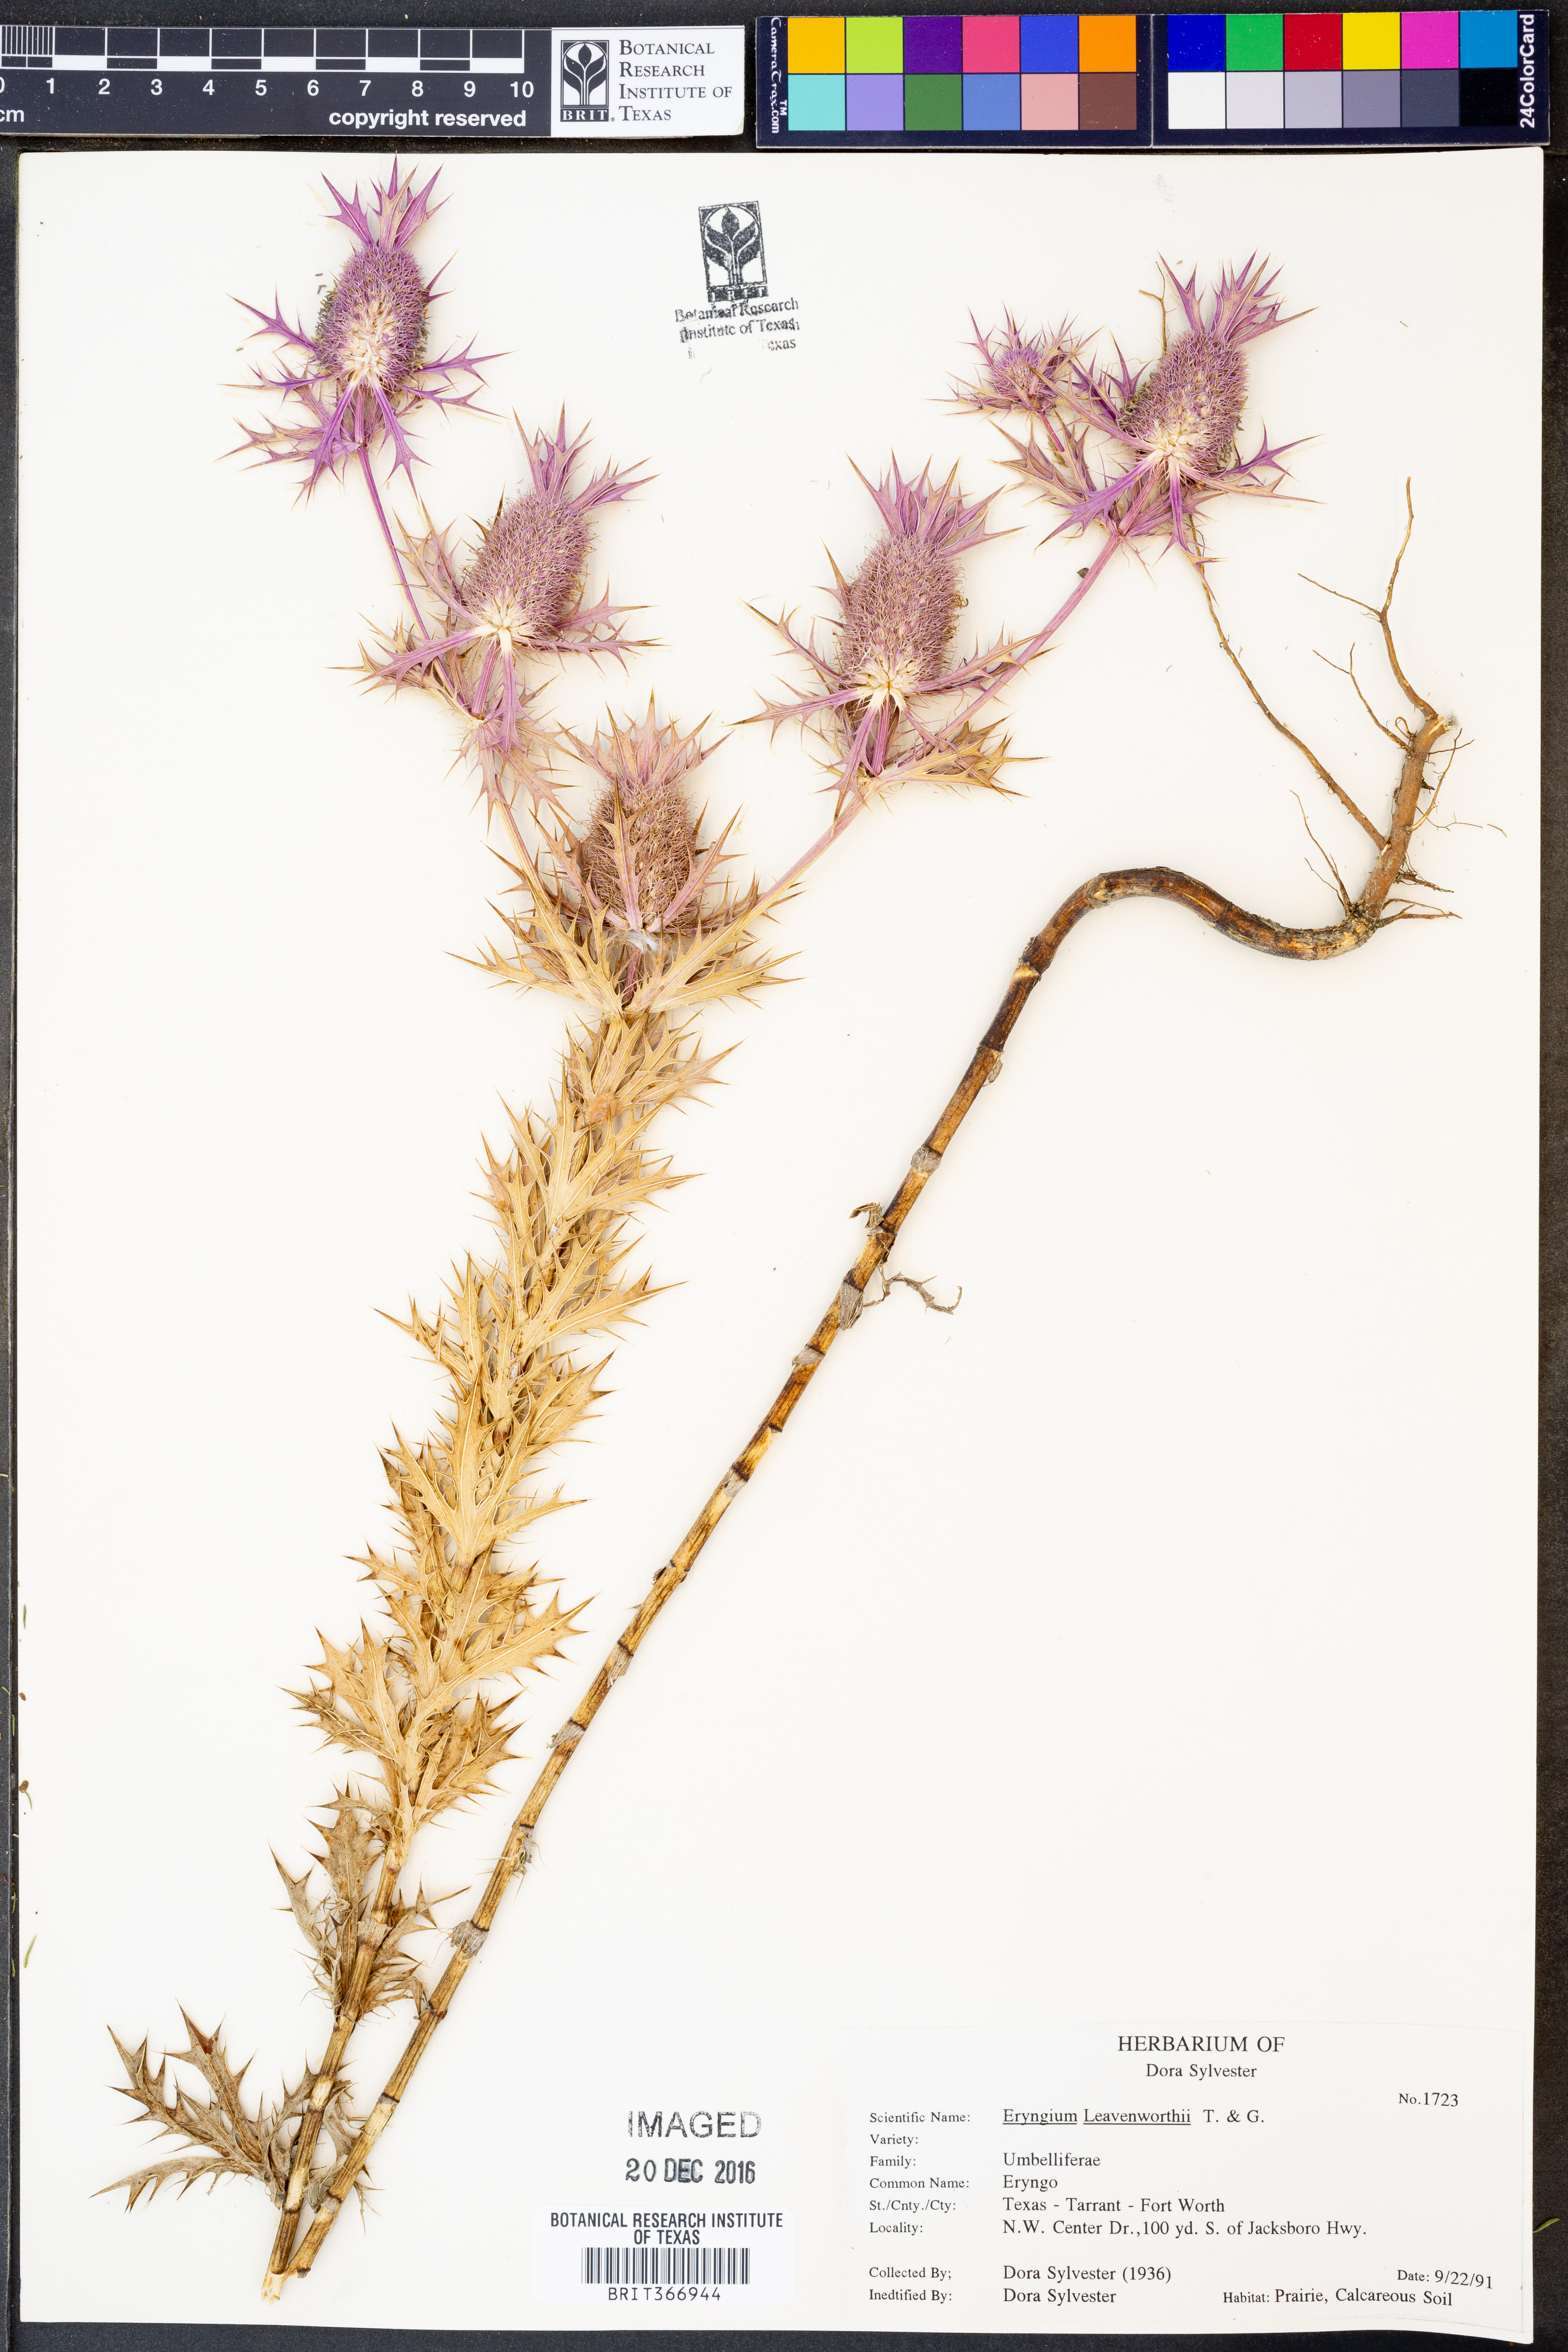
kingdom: Plantae
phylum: Tracheophyta
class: Magnoliopsida
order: Apiales
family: Apiaceae
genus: Eryngium
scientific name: Eryngium leavenworthii
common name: Leavenworth's eryngo
